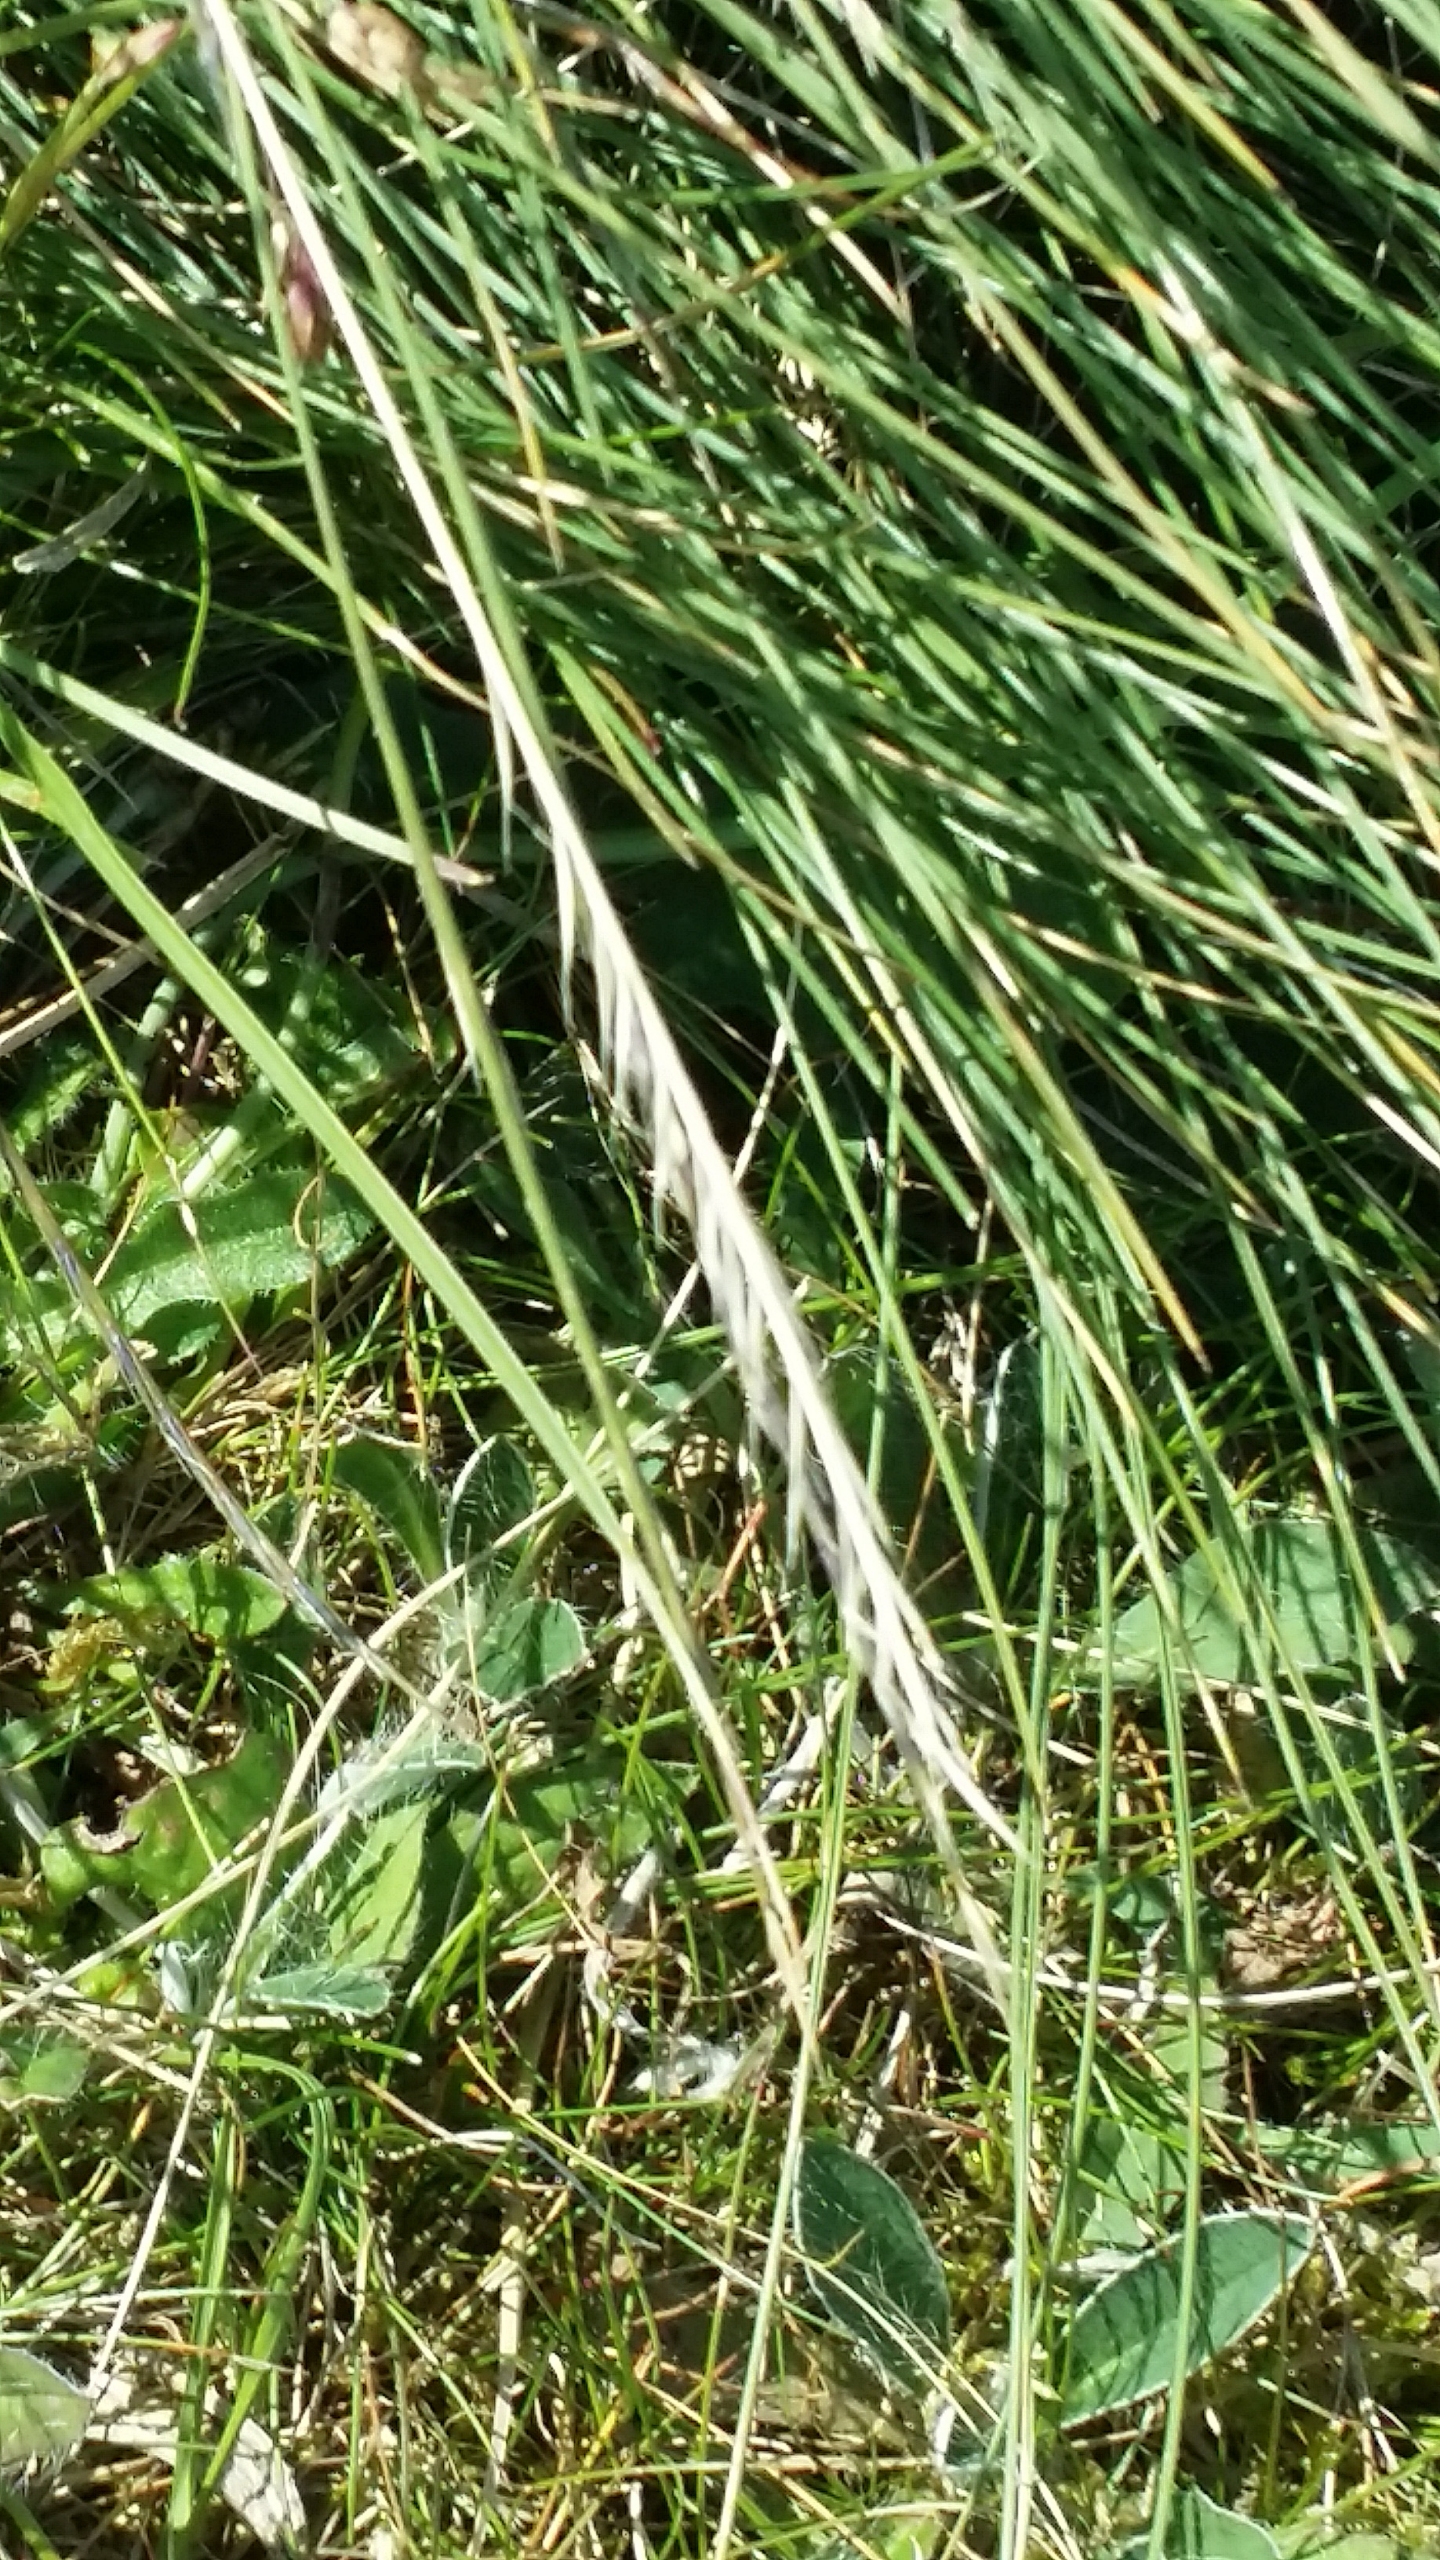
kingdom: Plantae
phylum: Tracheophyta
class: Liliopsida
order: Poales
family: Poaceae
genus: Nardus
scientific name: Nardus stricta
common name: Katteskæg
